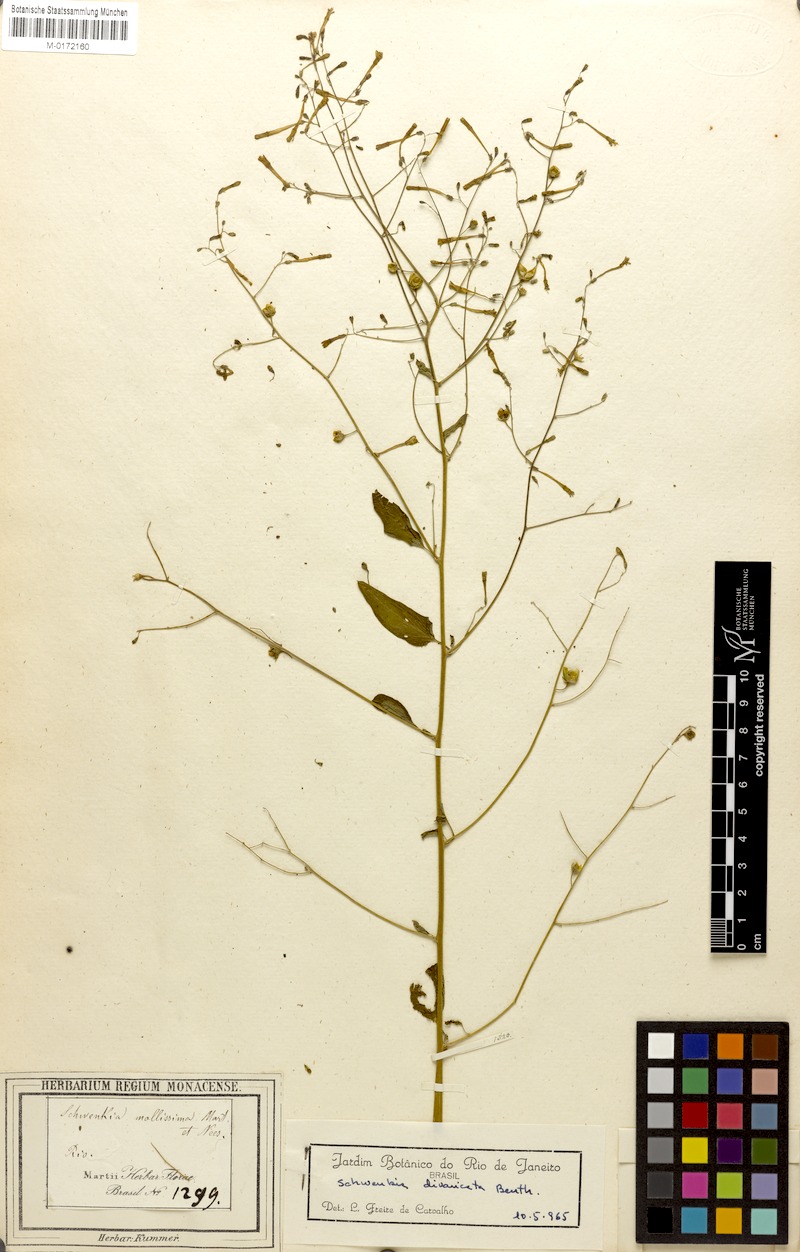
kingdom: Plantae
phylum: Tracheophyta
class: Magnoliopsida
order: Solanales
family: Solanaceae
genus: Schwenckia
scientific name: Schwenckia paniculata
